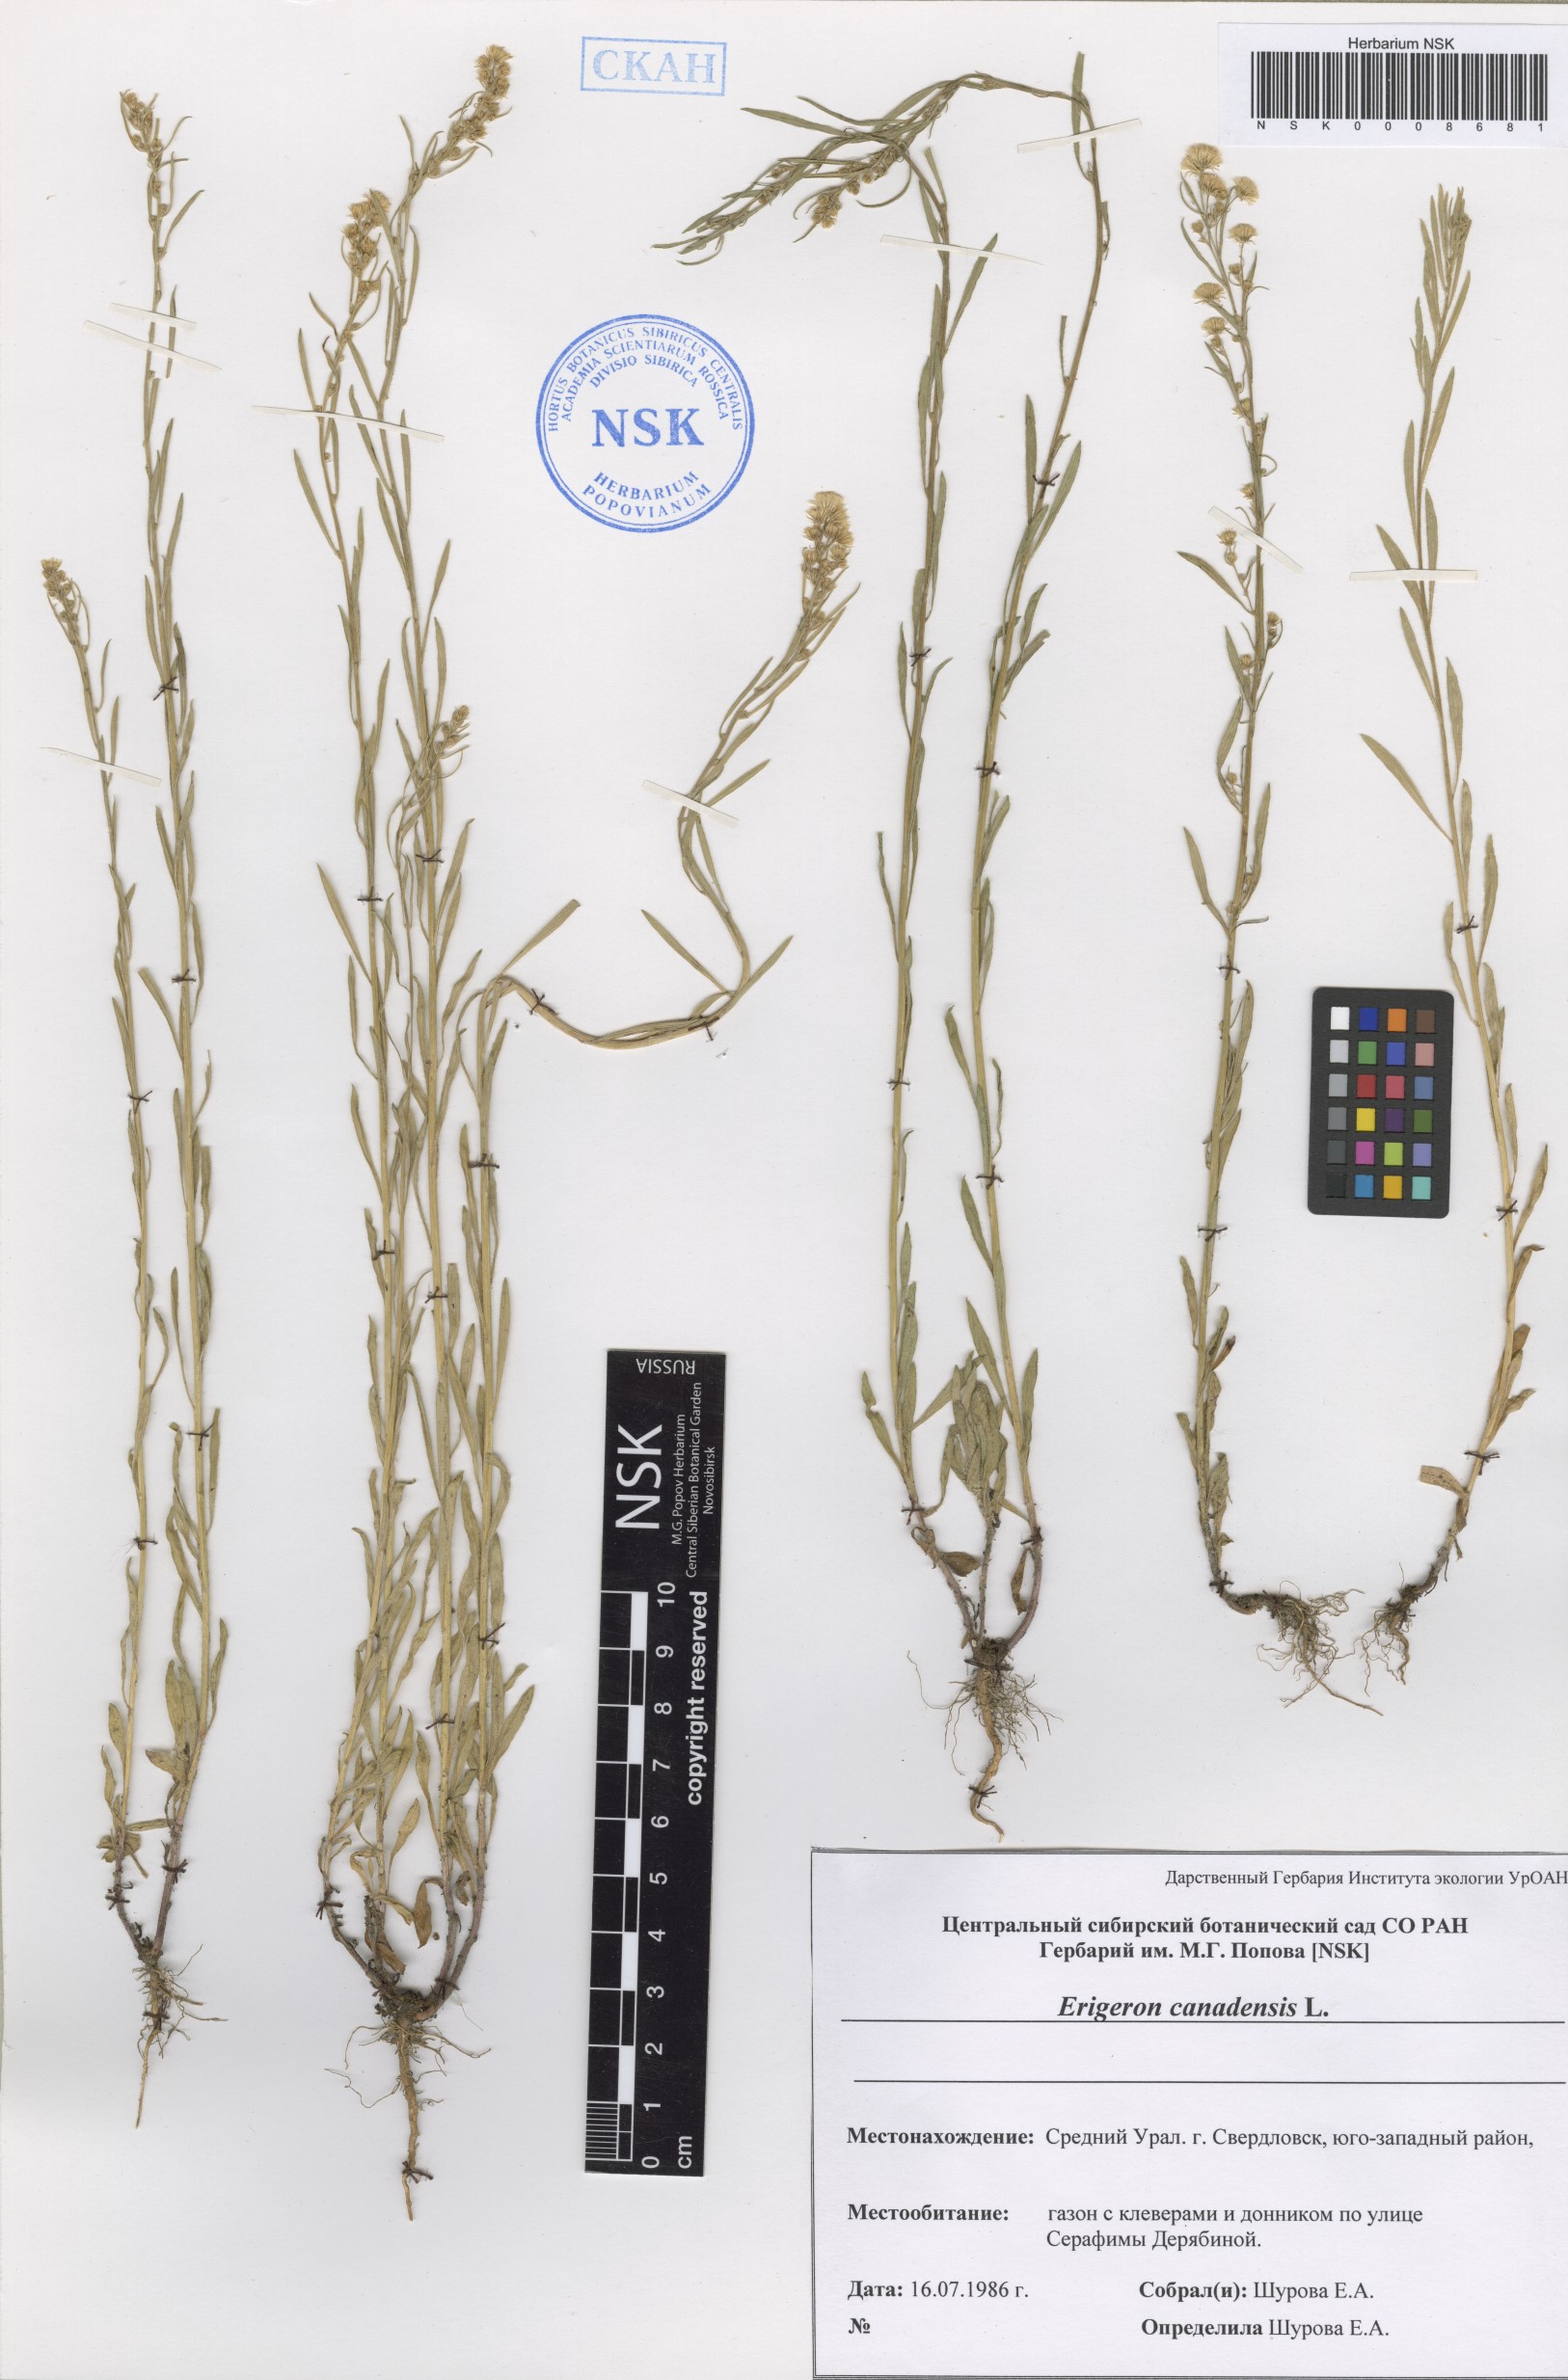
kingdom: Plantae
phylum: Tracheophyta
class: Magnoliopsida
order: Asterales
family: Asteraceae
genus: Erigeron
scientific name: Erigeron canadensis
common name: Canadian fleabane
